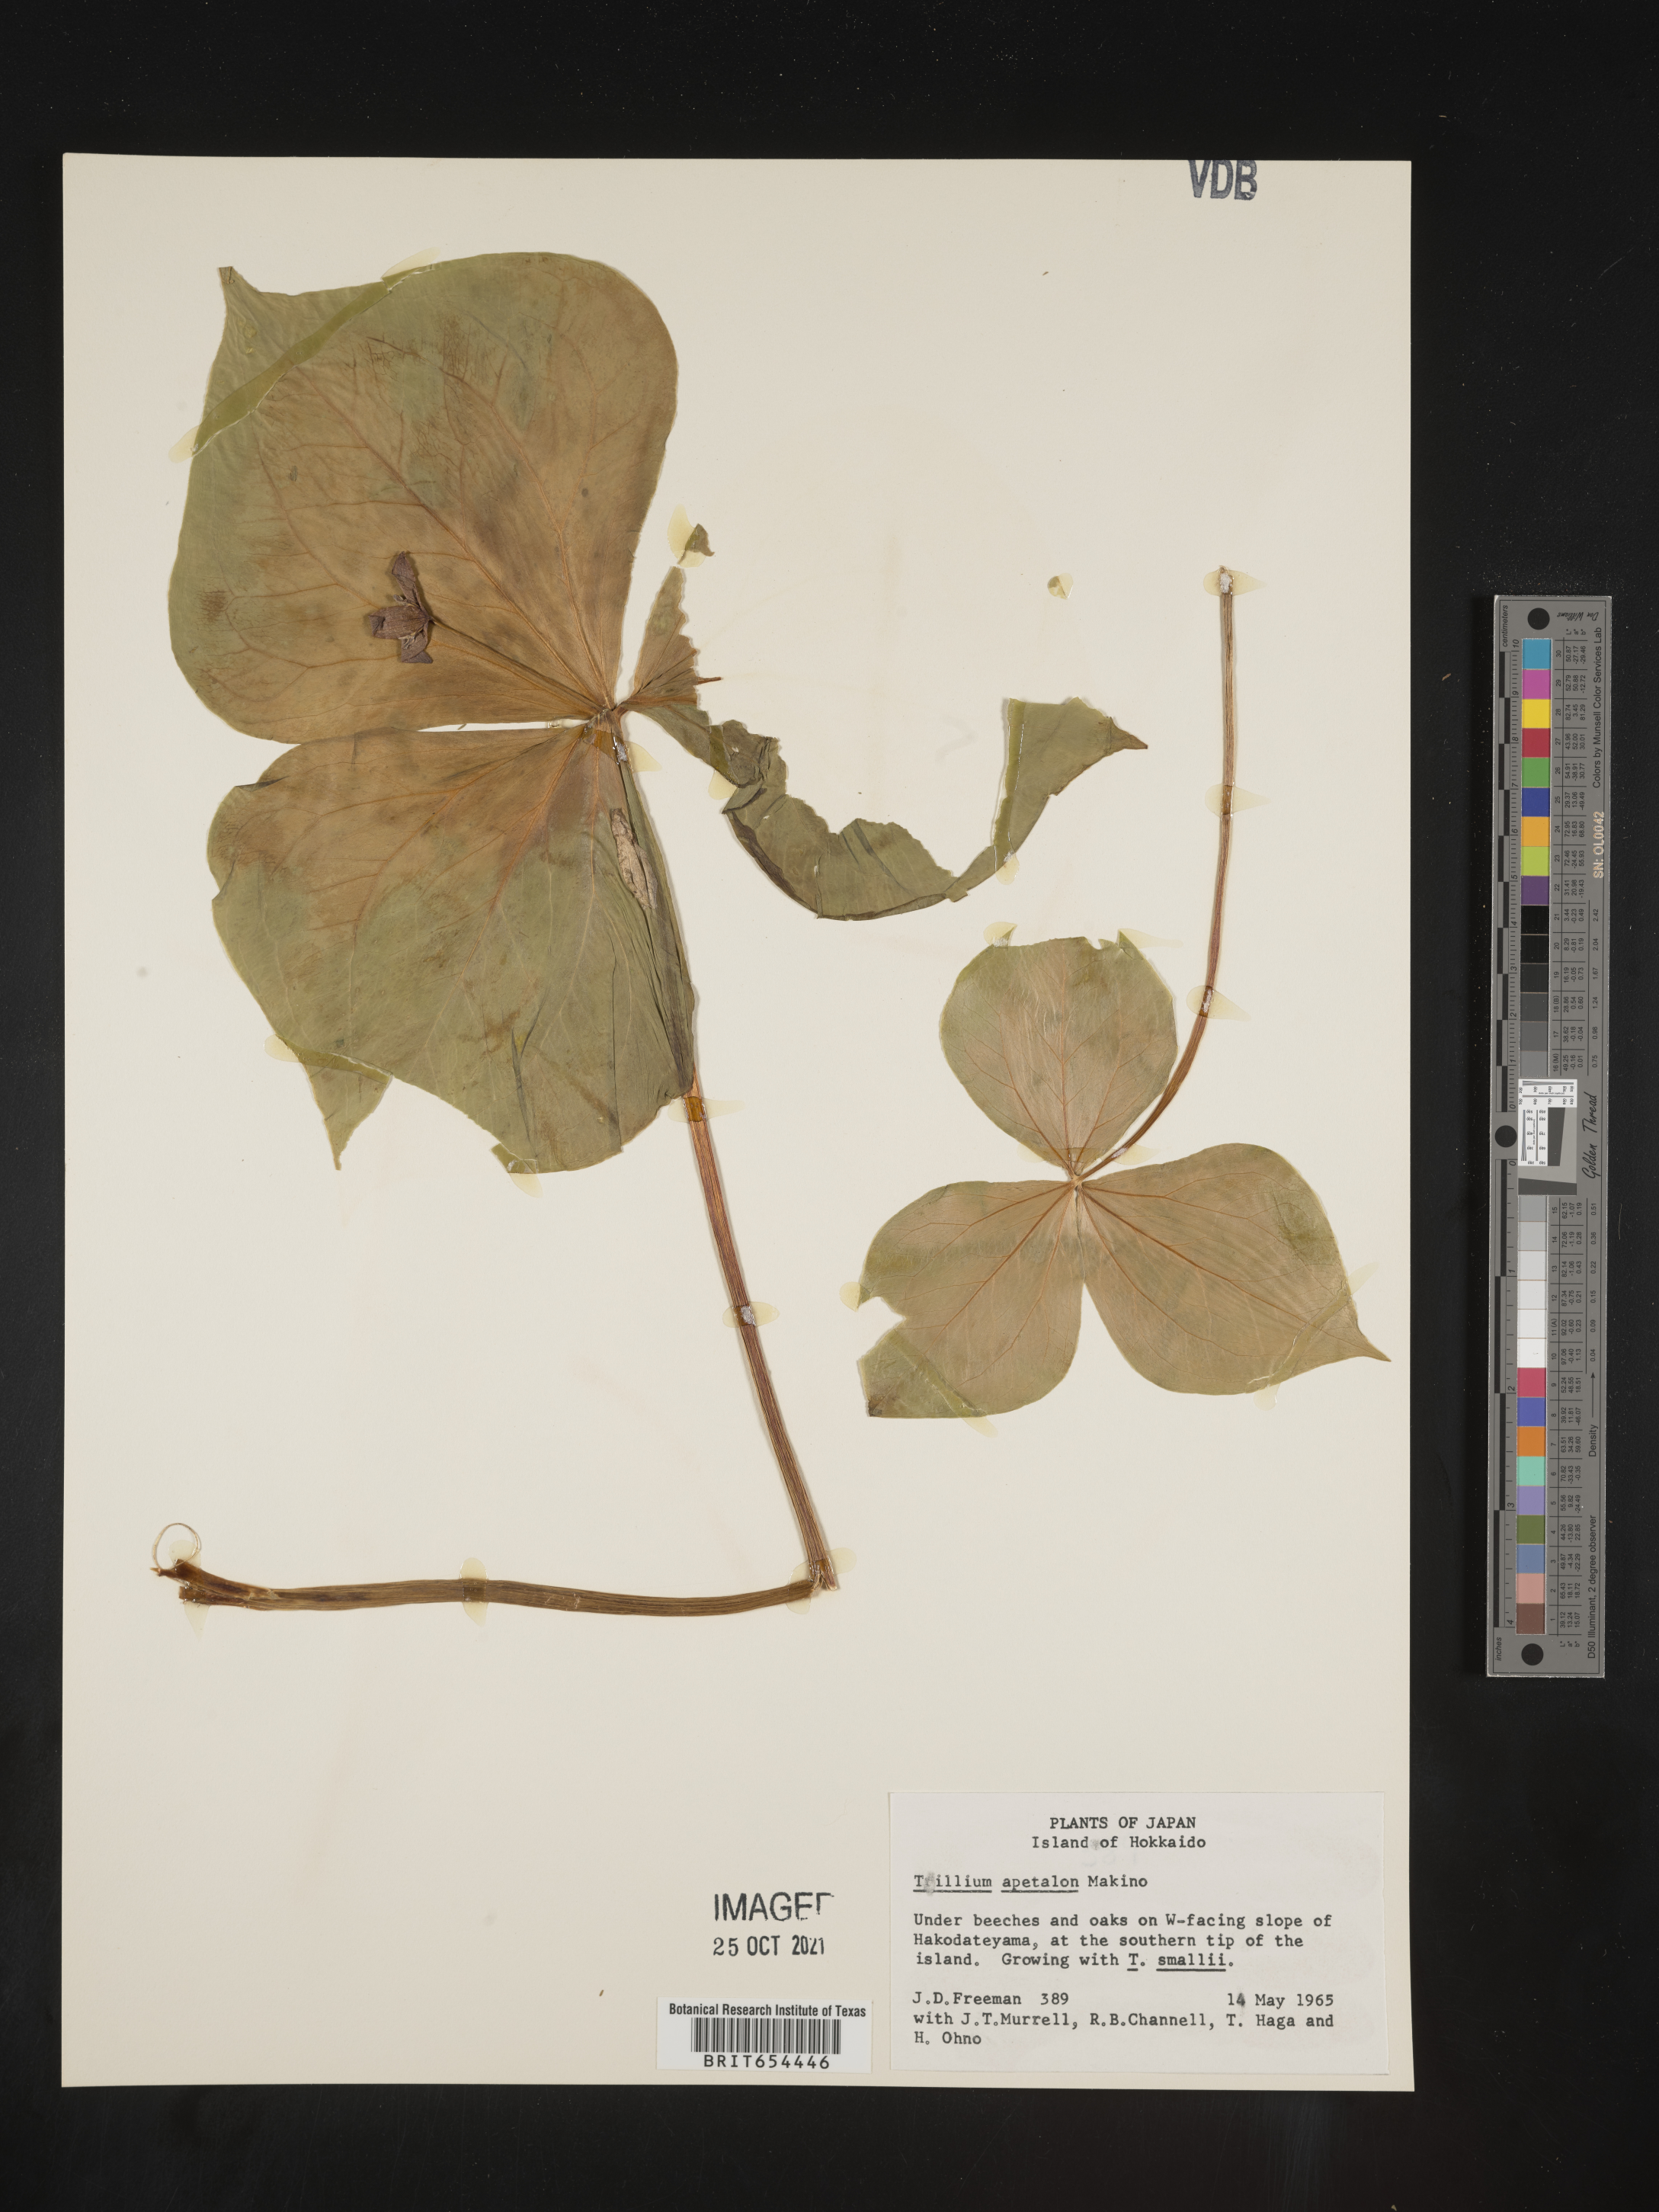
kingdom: Plantae
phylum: Tracheophyta
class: Liliopsida
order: Liliales
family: Melanthiaceae
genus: Trillium
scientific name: Trillium
